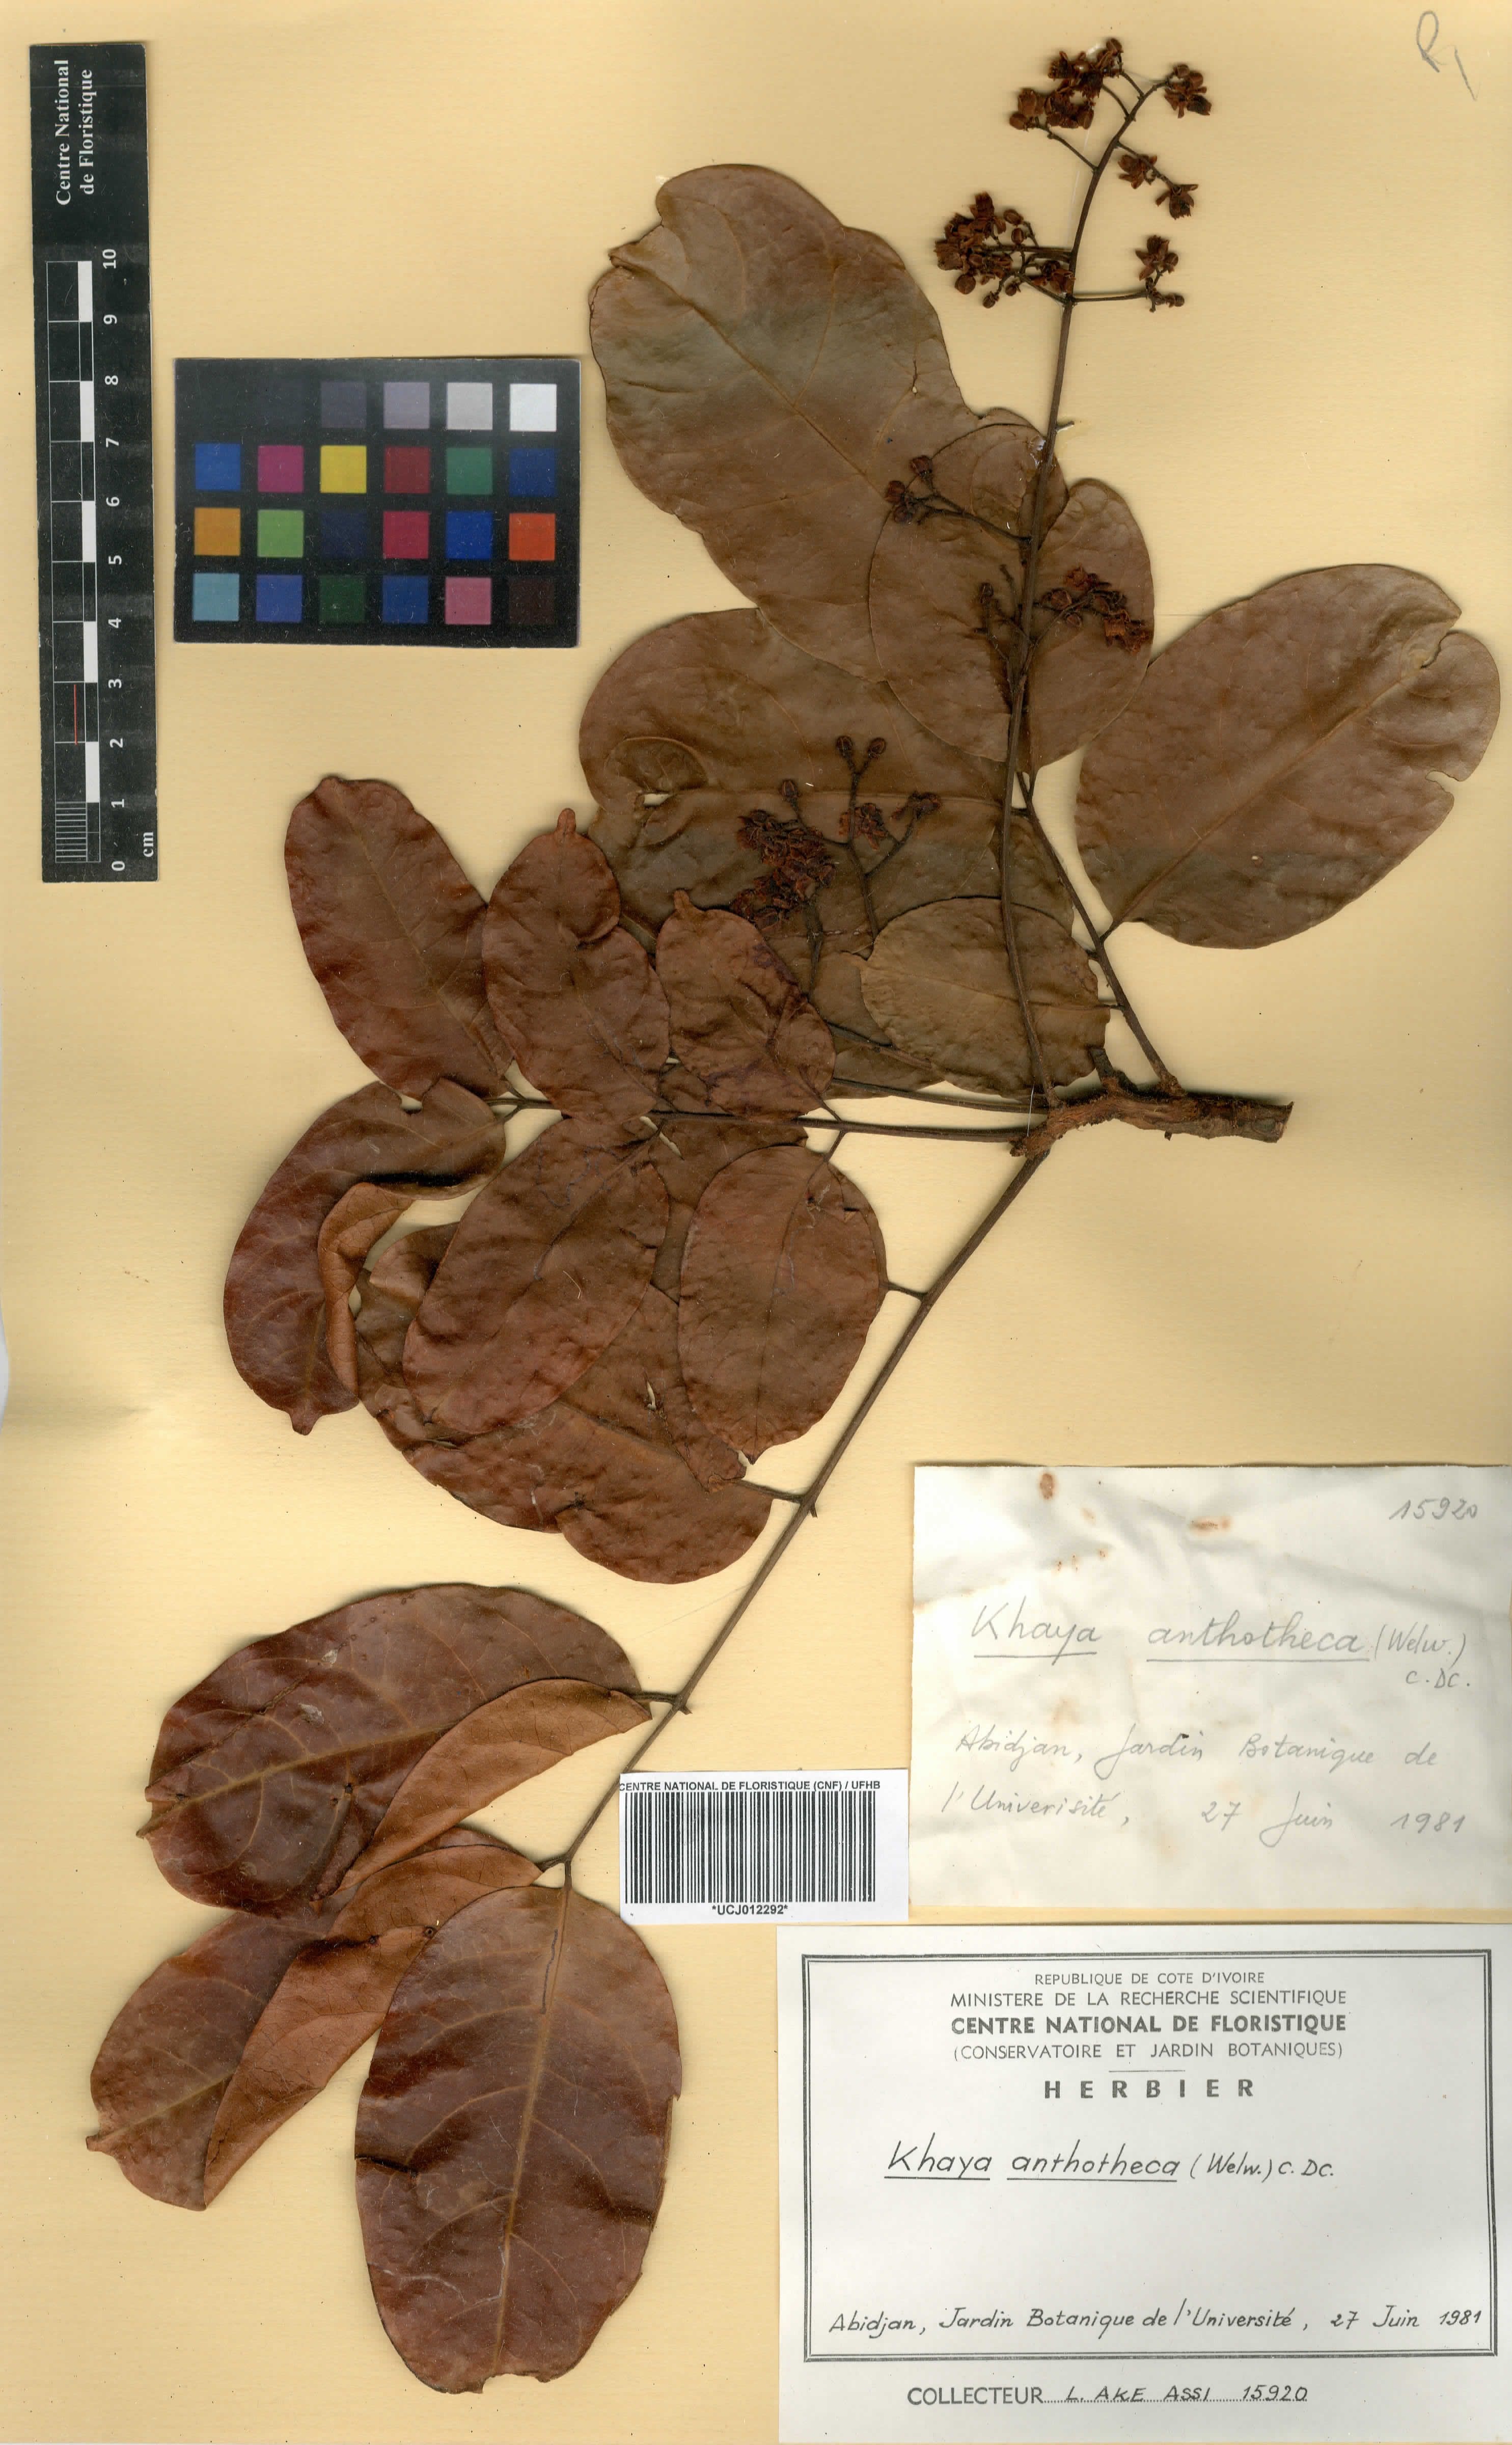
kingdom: Plantae
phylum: Tracheophyta
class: Magnoliopsida
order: Sapindales
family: Meliaceae
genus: Khaya
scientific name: Khaya anthotheca
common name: Nyasaland mahogany
